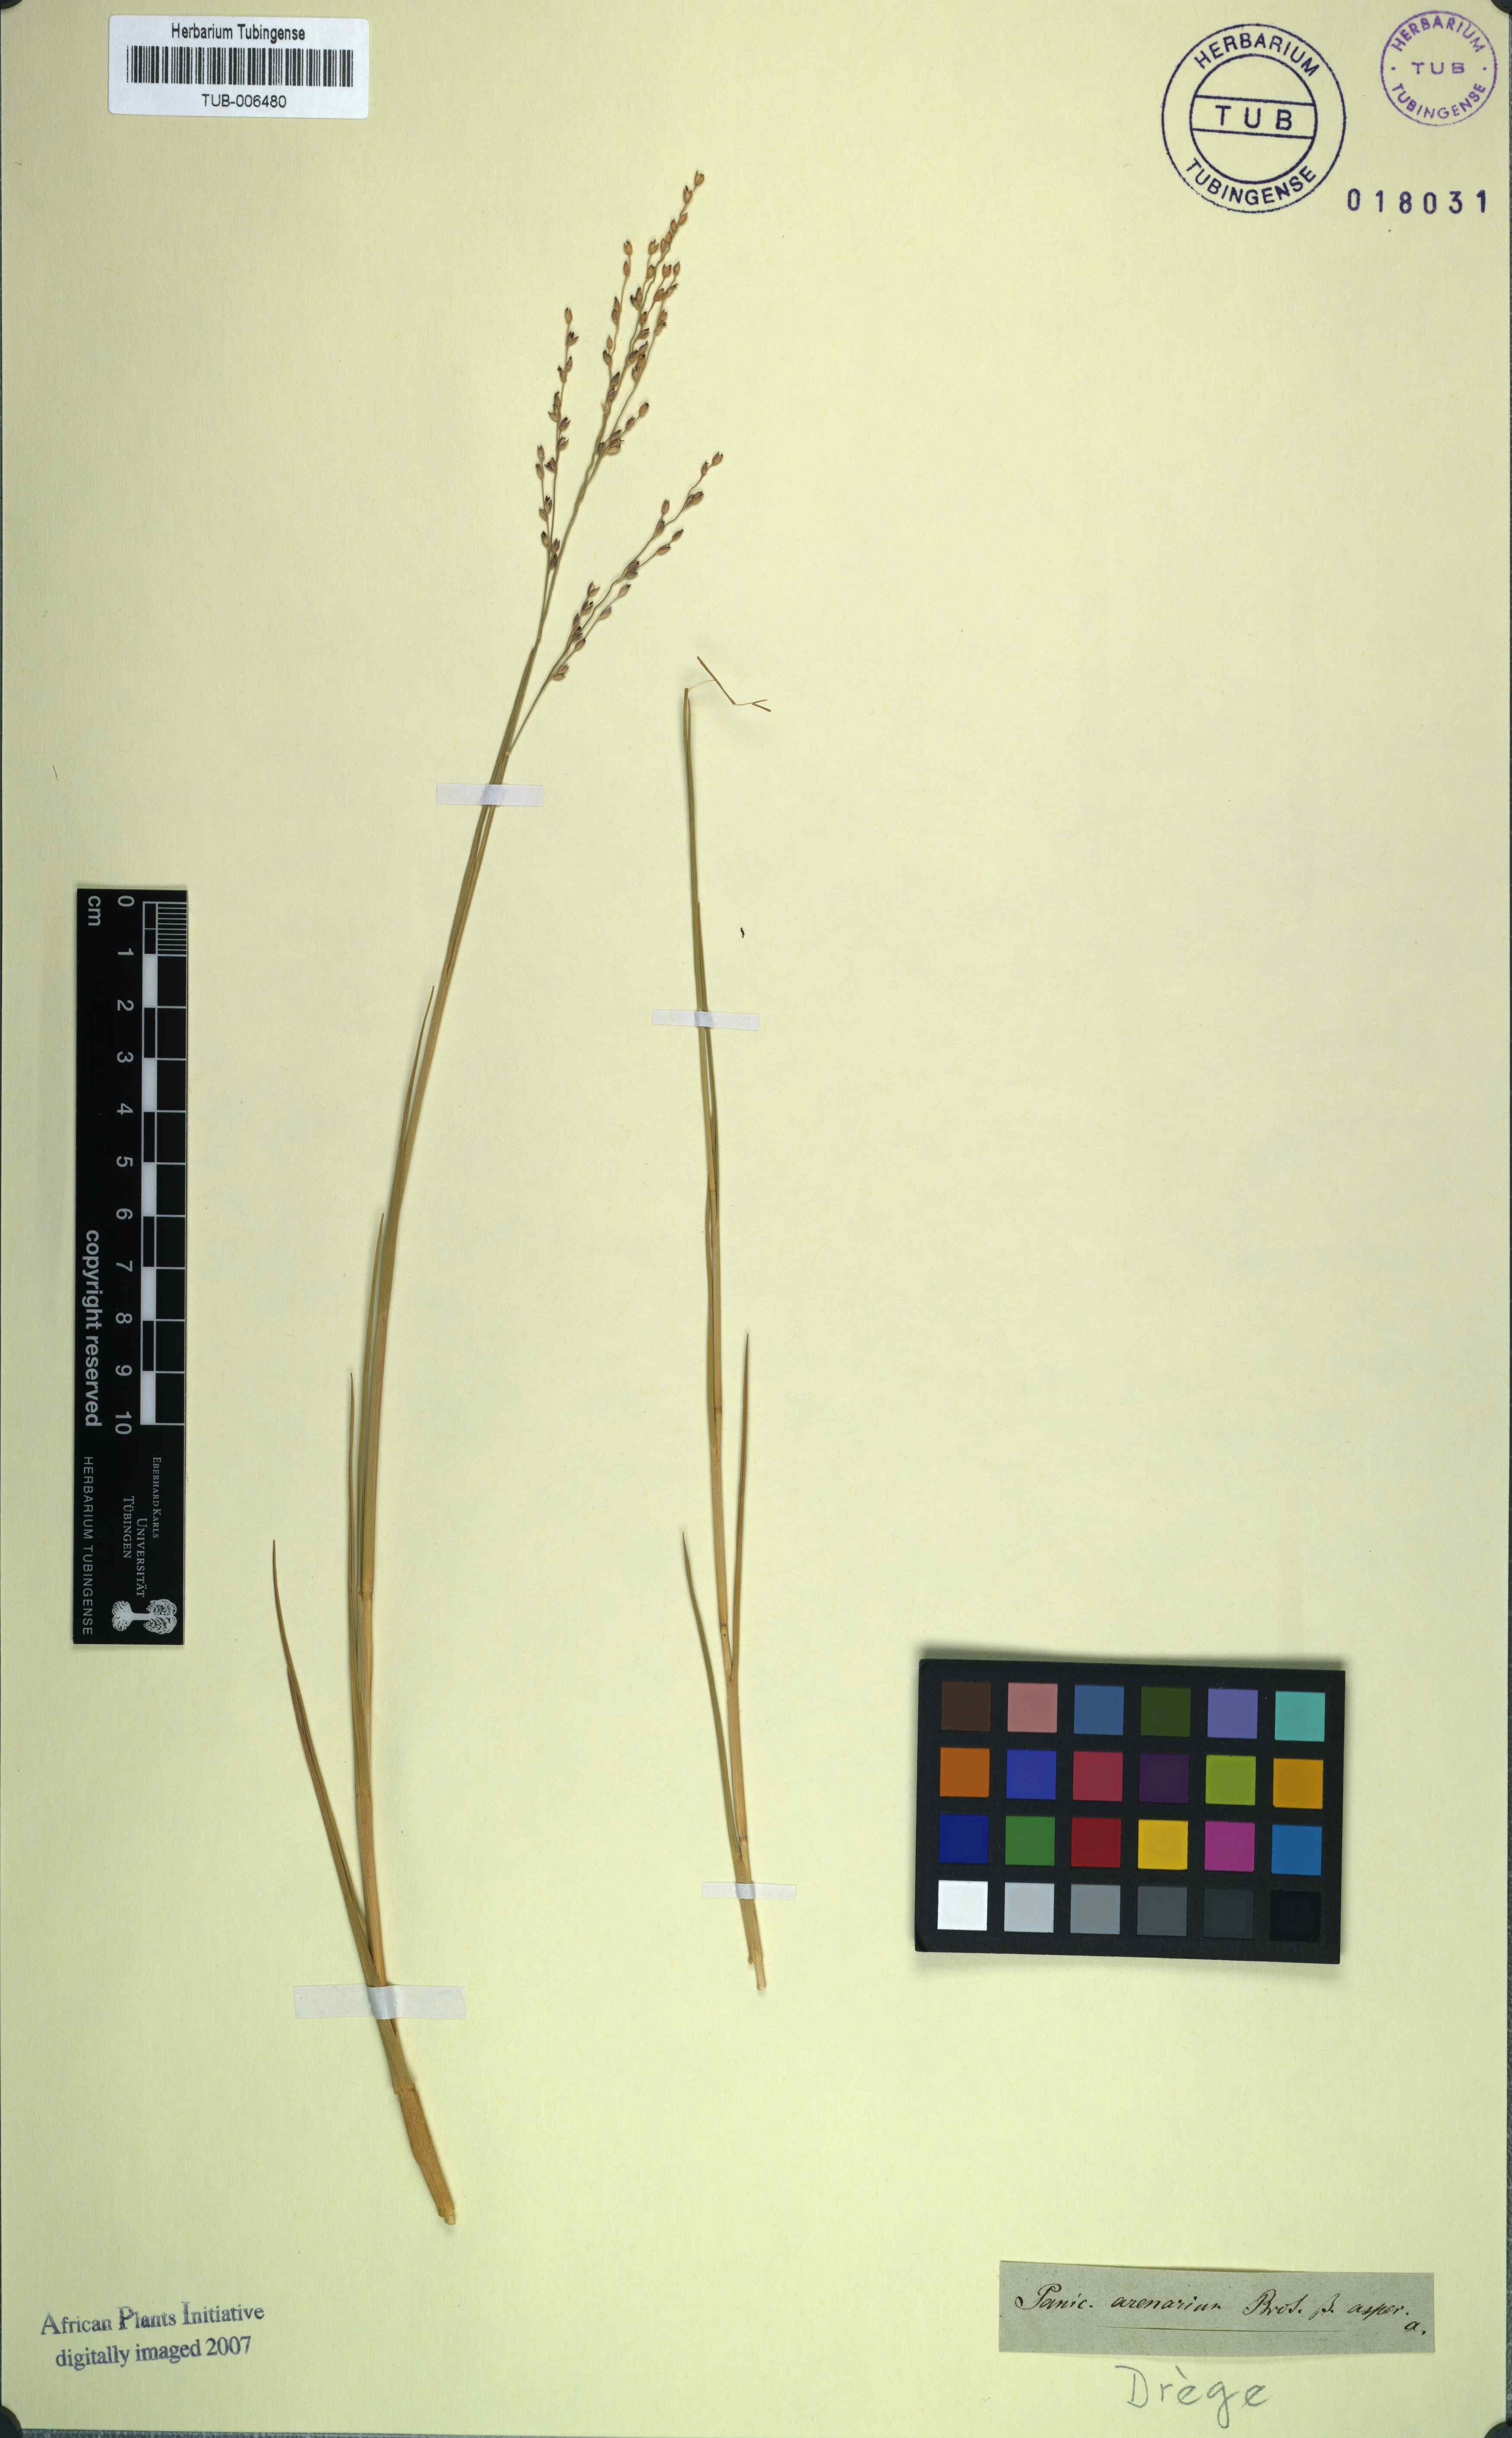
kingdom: Plantae
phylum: Tracheophyta
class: Liliopsida
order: Poales
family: Poaceae
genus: Panicum
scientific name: Panicum repens
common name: Torpedo grass
